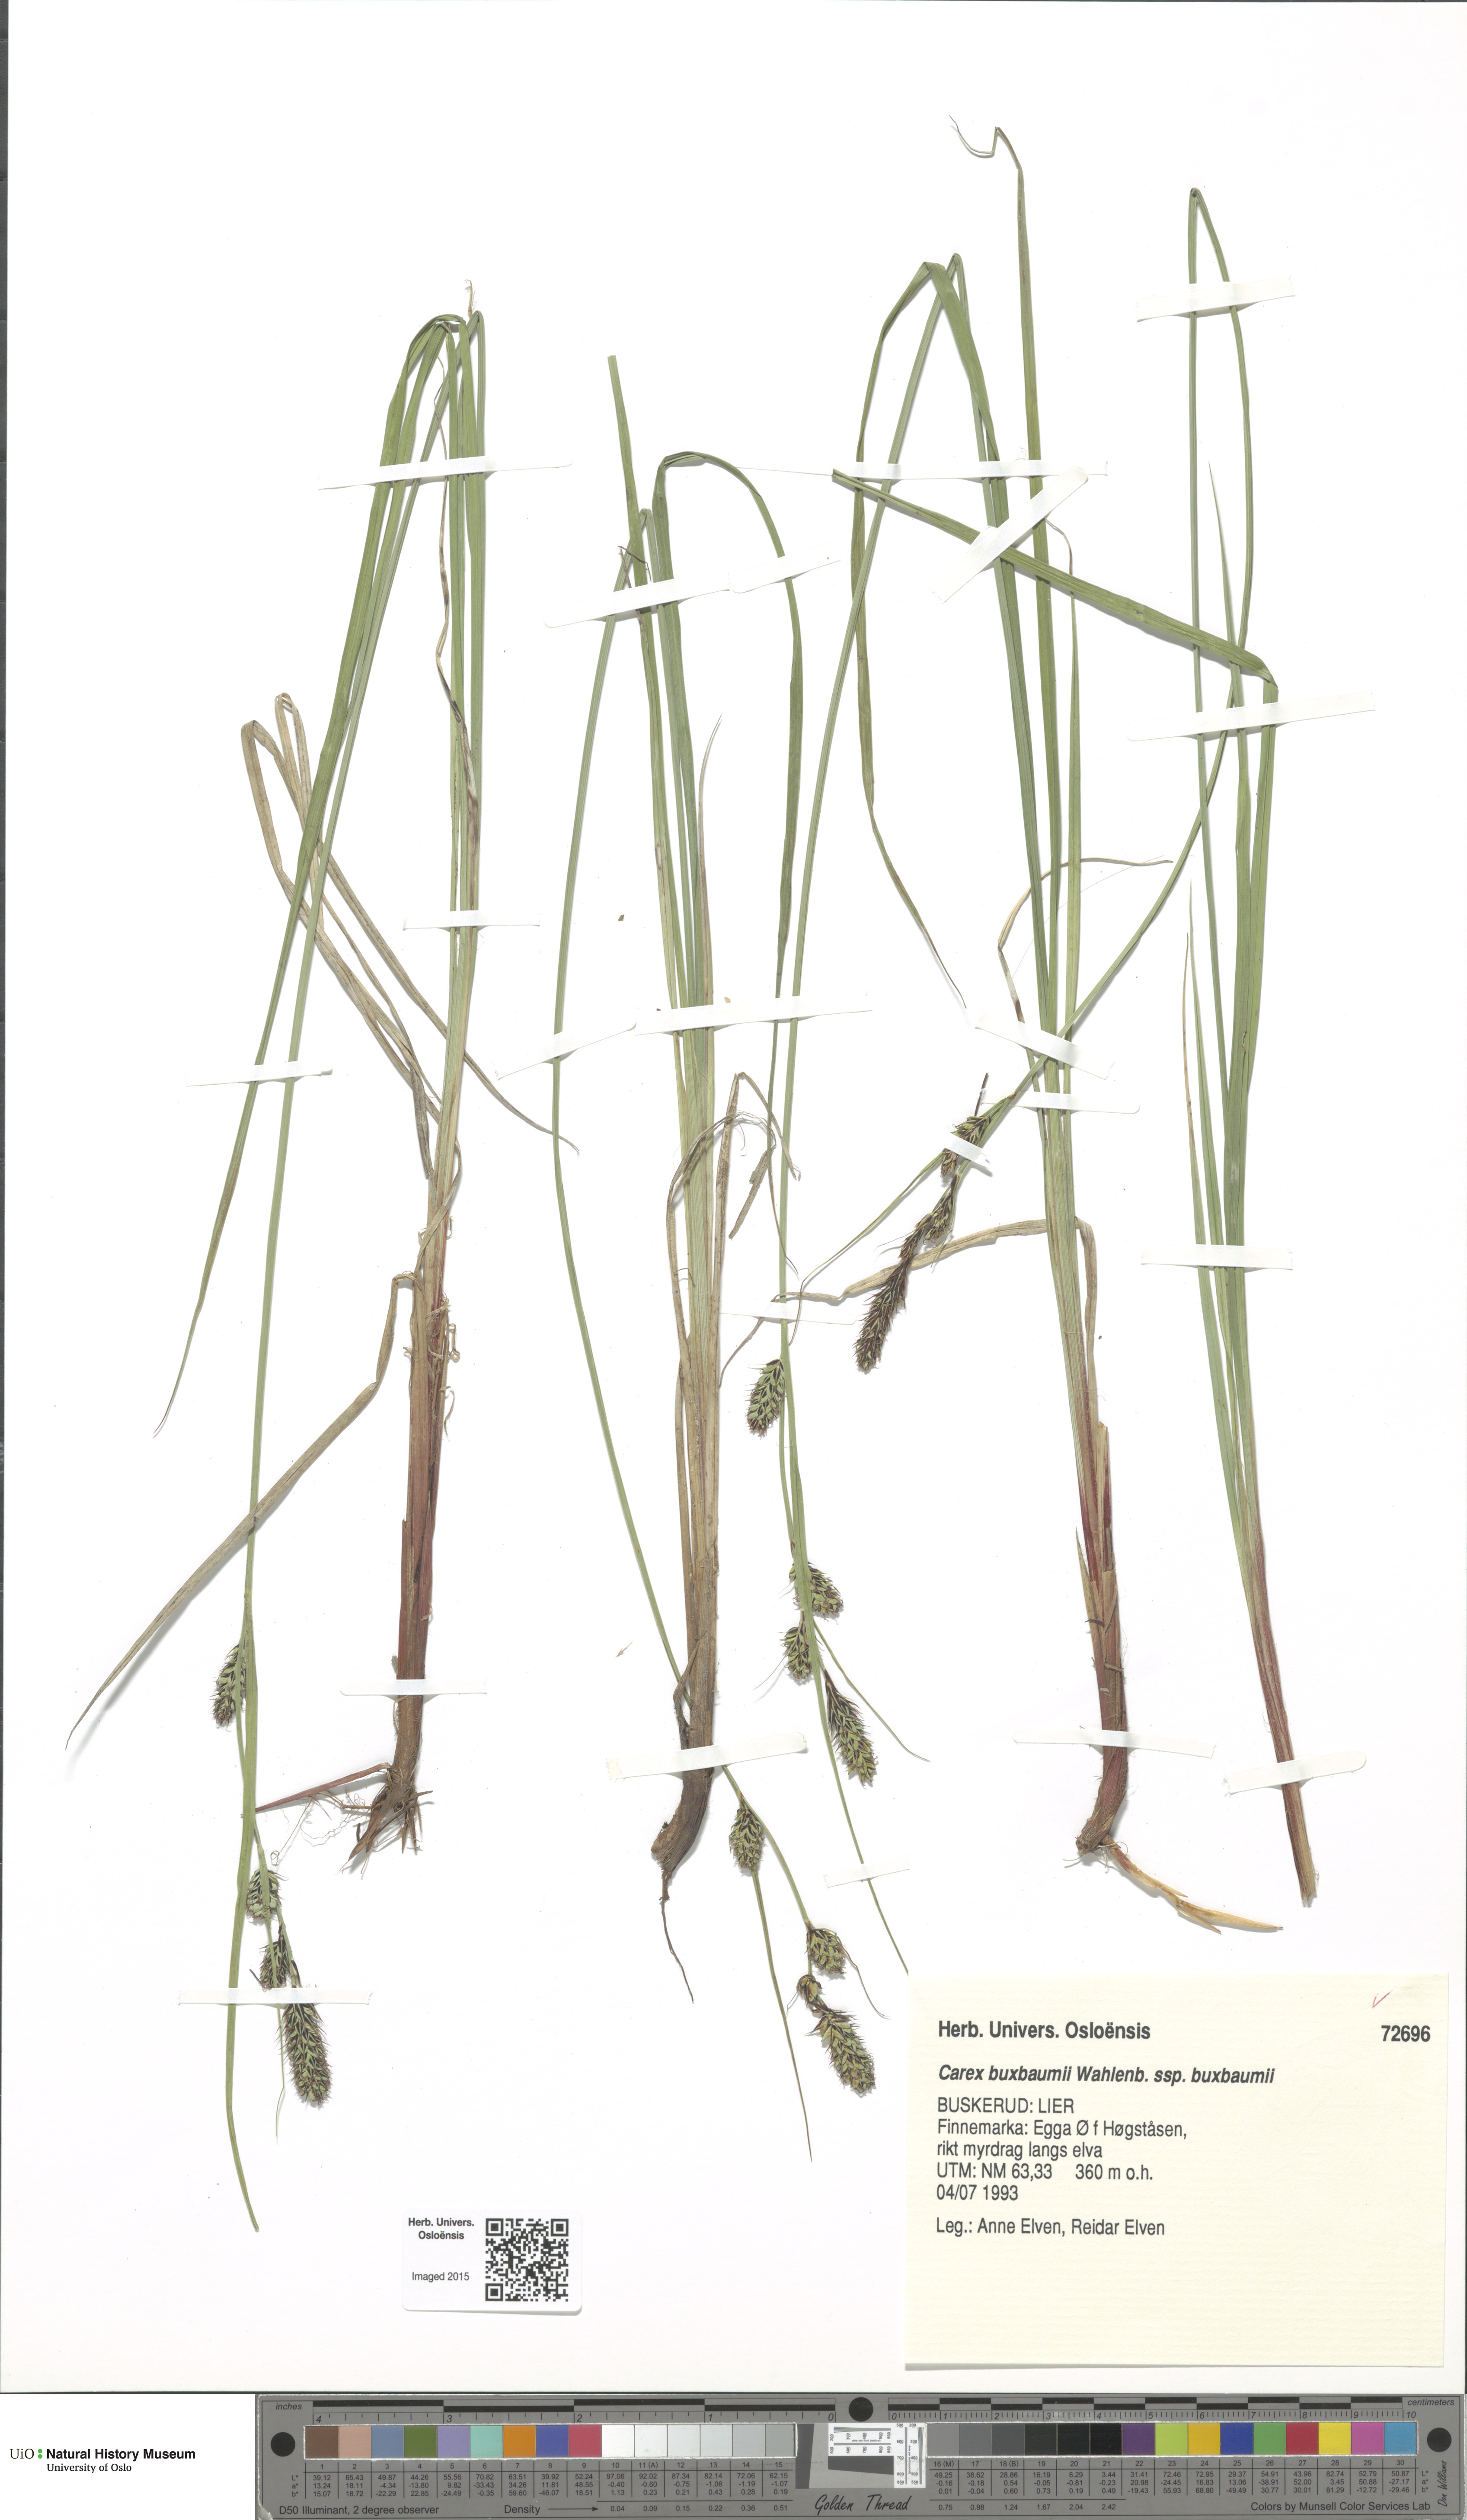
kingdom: Plantae
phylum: Tracheophyta
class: Liliopsida
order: Poales
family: Cyperaceae
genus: Carex
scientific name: Carex buxbaumii
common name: Club sedge
